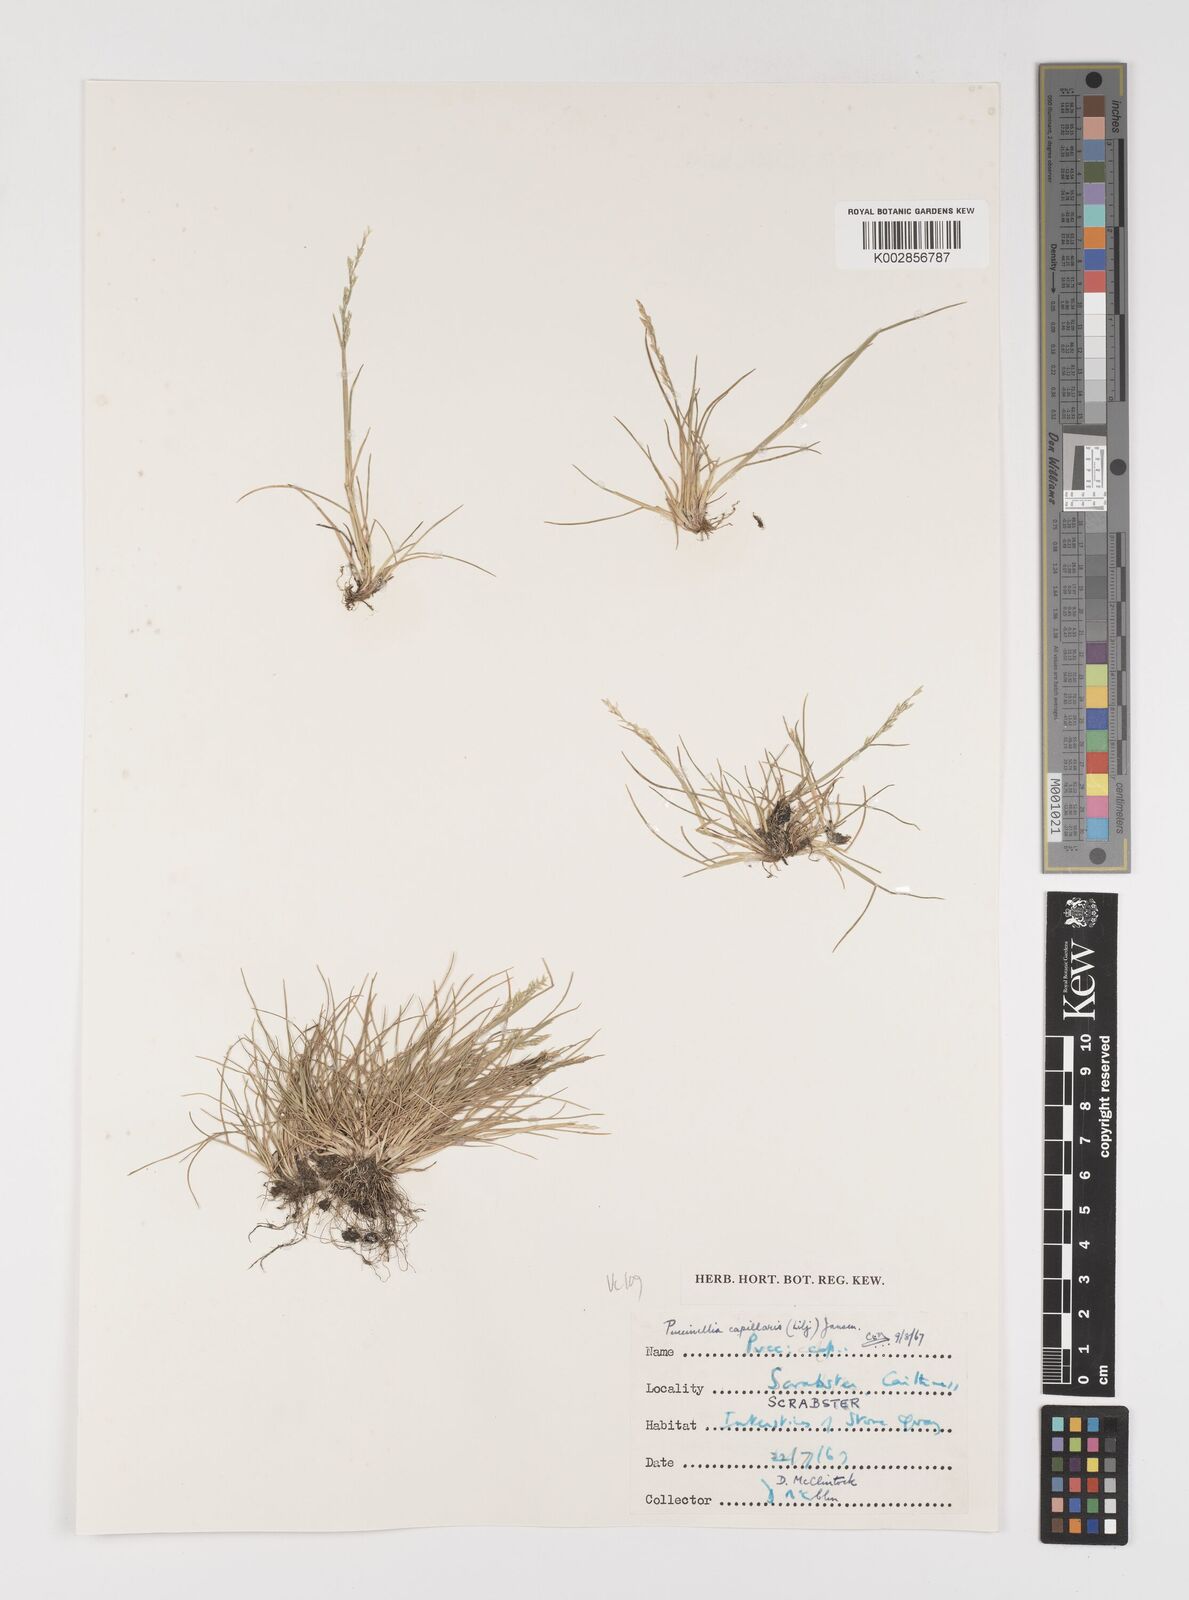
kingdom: Plantae
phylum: Tracheophyta
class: Liliopsida
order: Poales
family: Poaceae
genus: Puccinellia
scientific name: Puccinellia distans
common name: Weeping alkaligrass
